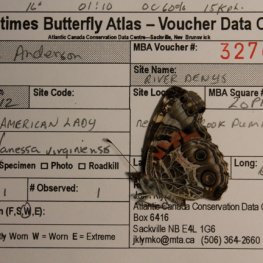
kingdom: Animalia
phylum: Arthropoda
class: Insecta
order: Lepidoptera
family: Nymphalidae
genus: Vanessa
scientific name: Vanessa virginiensis
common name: American Lady
